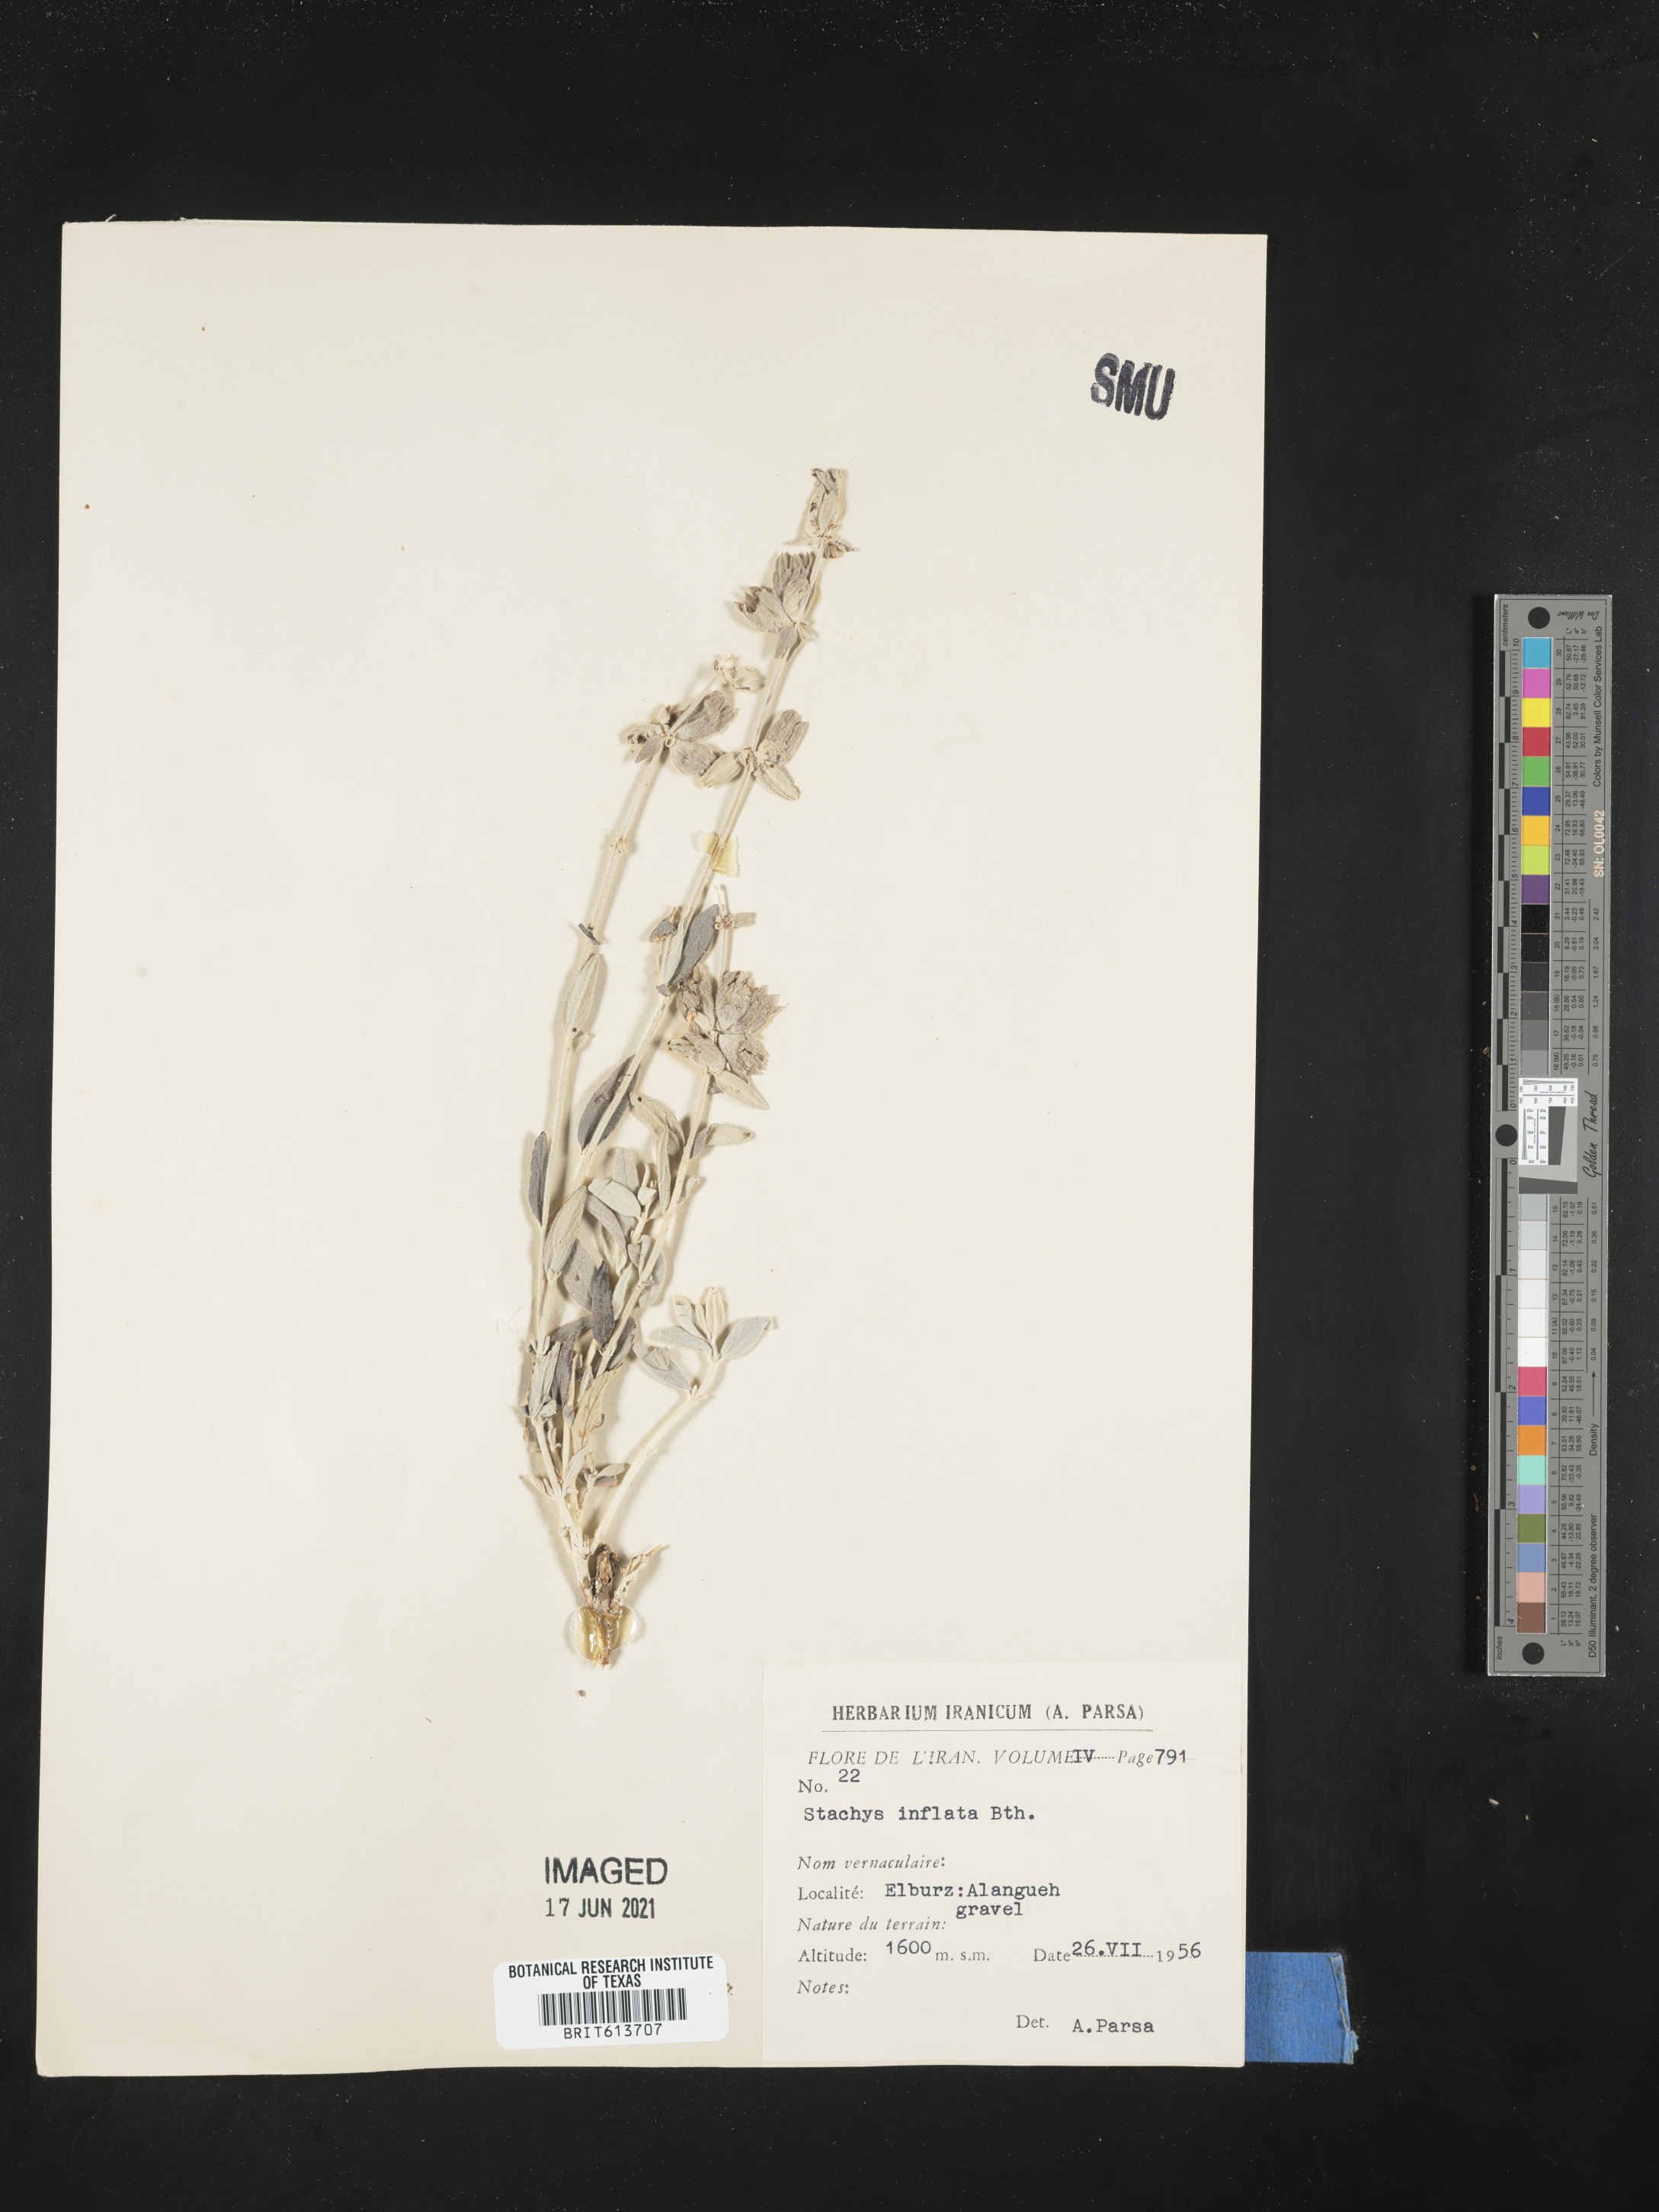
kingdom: Plantae
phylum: Tracheophyta
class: Magnoliopsida
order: Lamiales
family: Lamiaceae
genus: Stachys
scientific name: Stachys inflata
